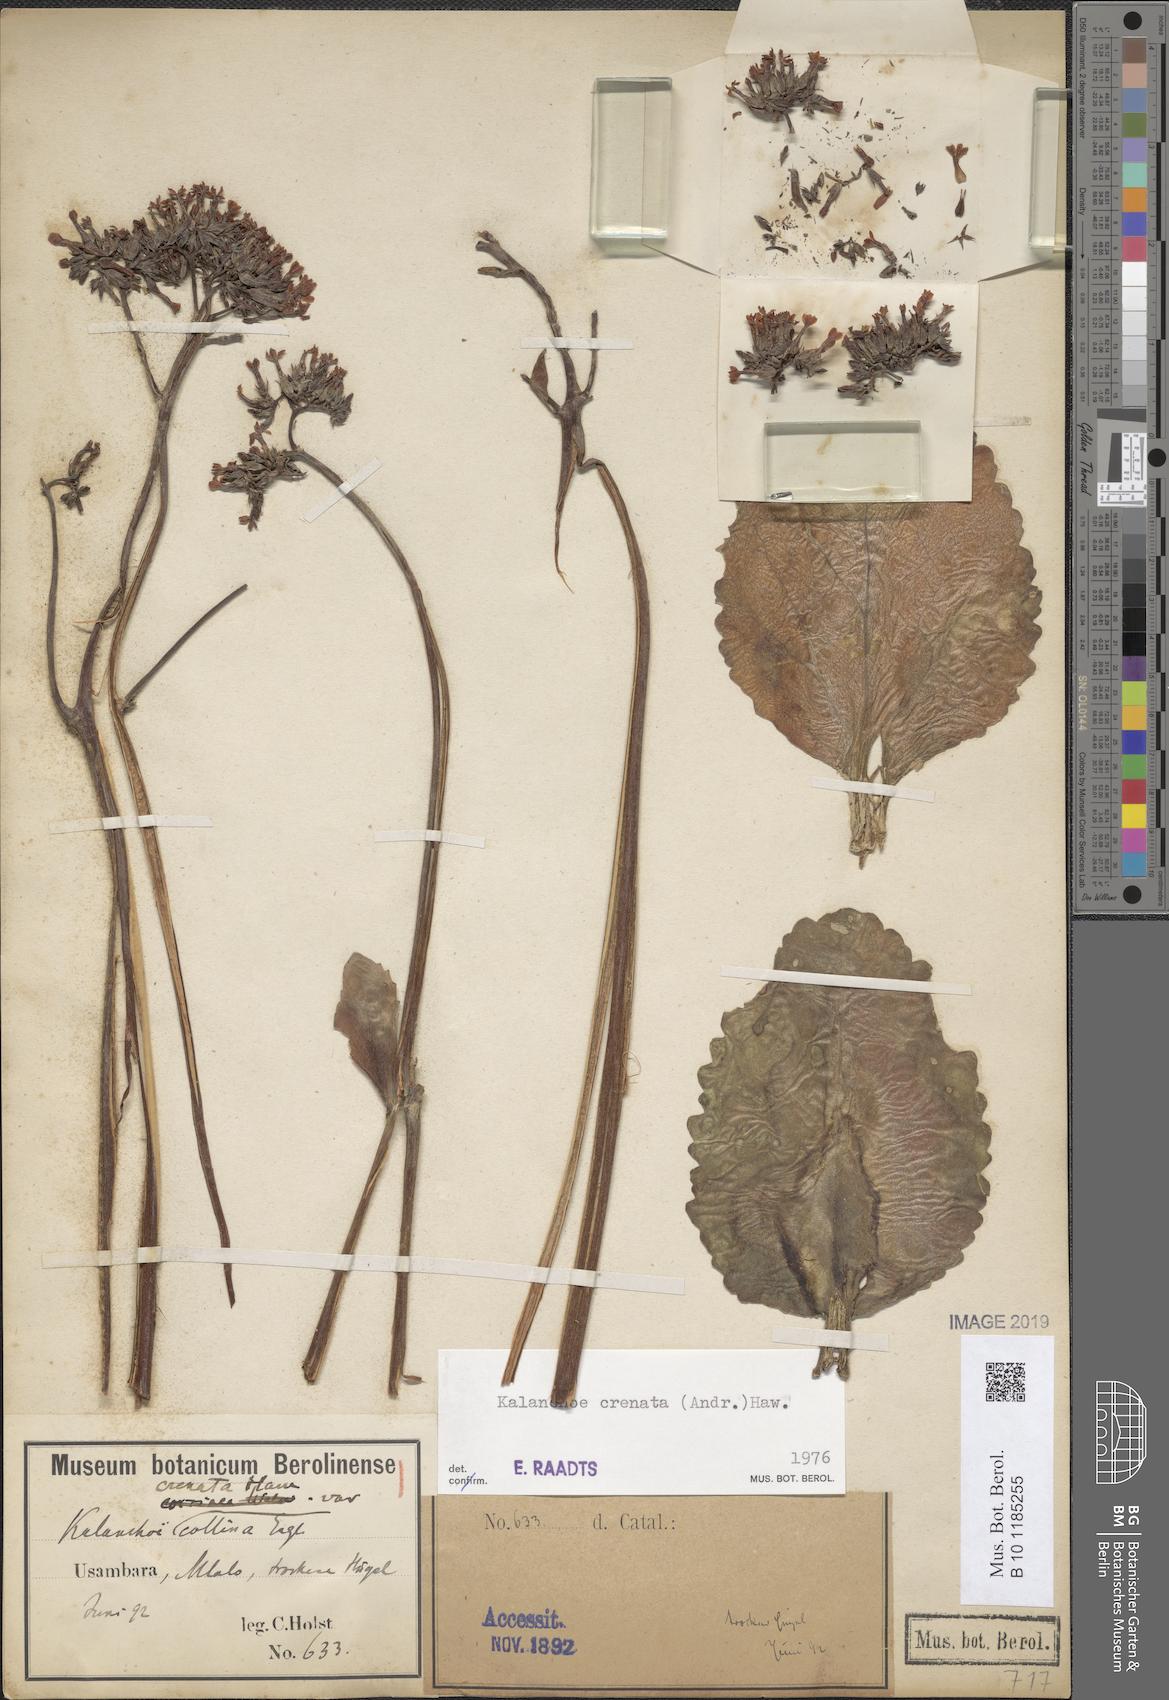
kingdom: Plantae
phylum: Tracheophyta
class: Magnoliopsida
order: Saxifragales
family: Crassulaceae
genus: Kalanchoe
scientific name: Kalanchoe crenata
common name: Neverdie
